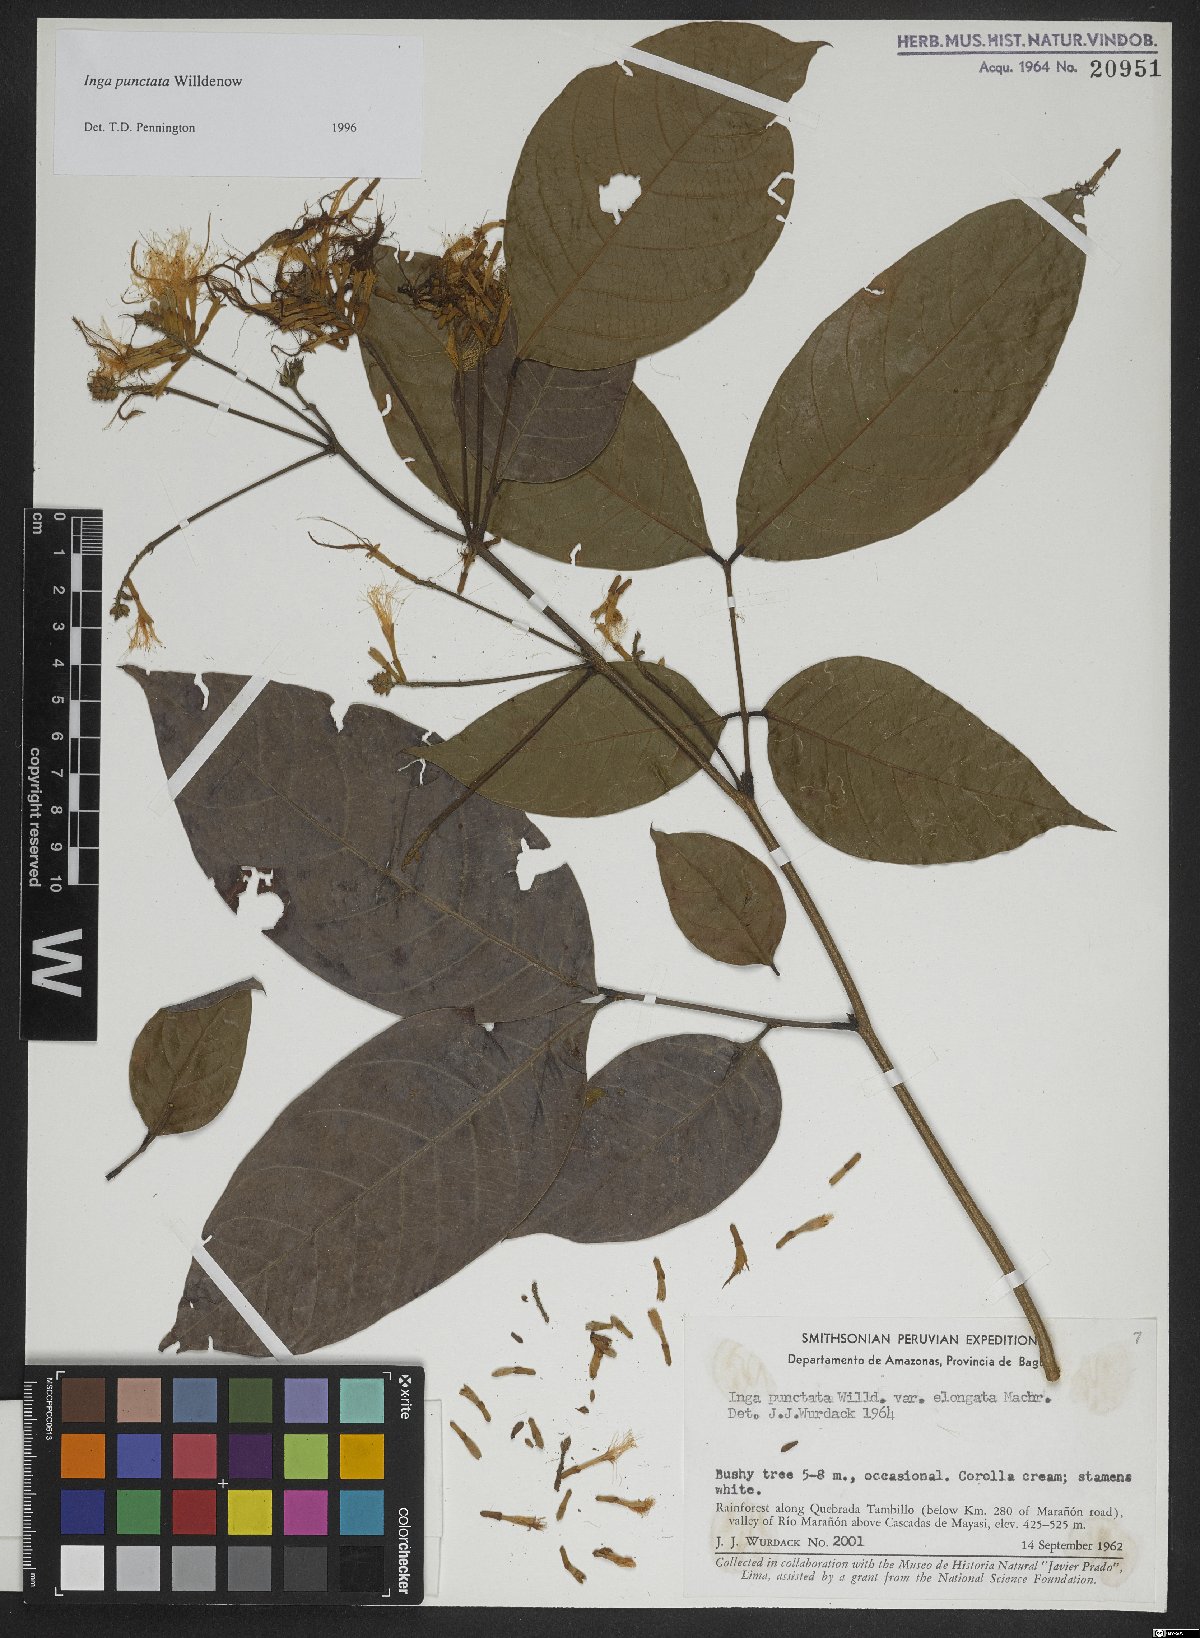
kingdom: Plantae
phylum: Tracheophyta
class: Magnoliopsida
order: Fabales
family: Fabaceae
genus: Inga
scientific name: Inga punctata
